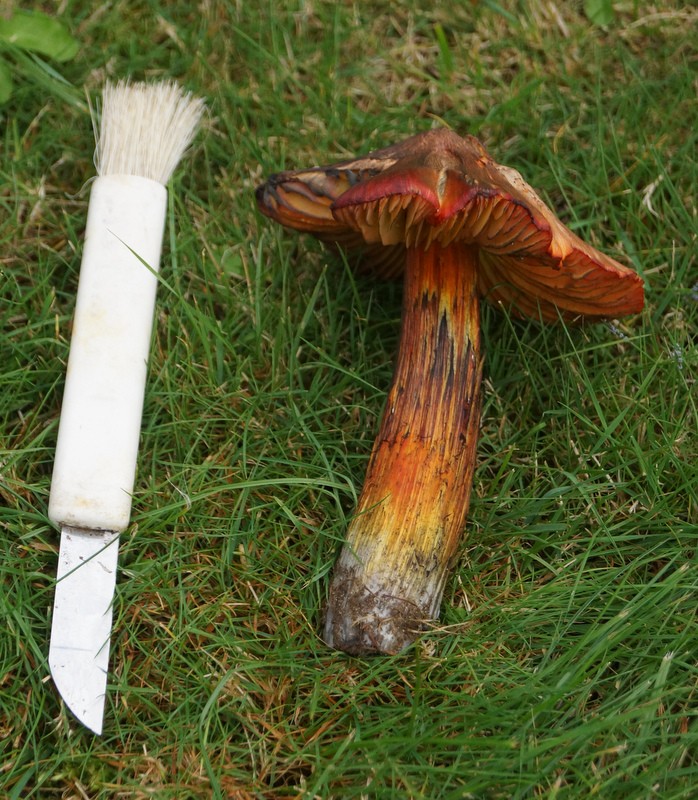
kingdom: Fungi
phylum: Basidiomycota
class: Agaricomycetes
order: Agaricales
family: Hygrophoraceae
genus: Hygrocybe
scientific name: Hygrocybe conica
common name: kegle-vokshat
